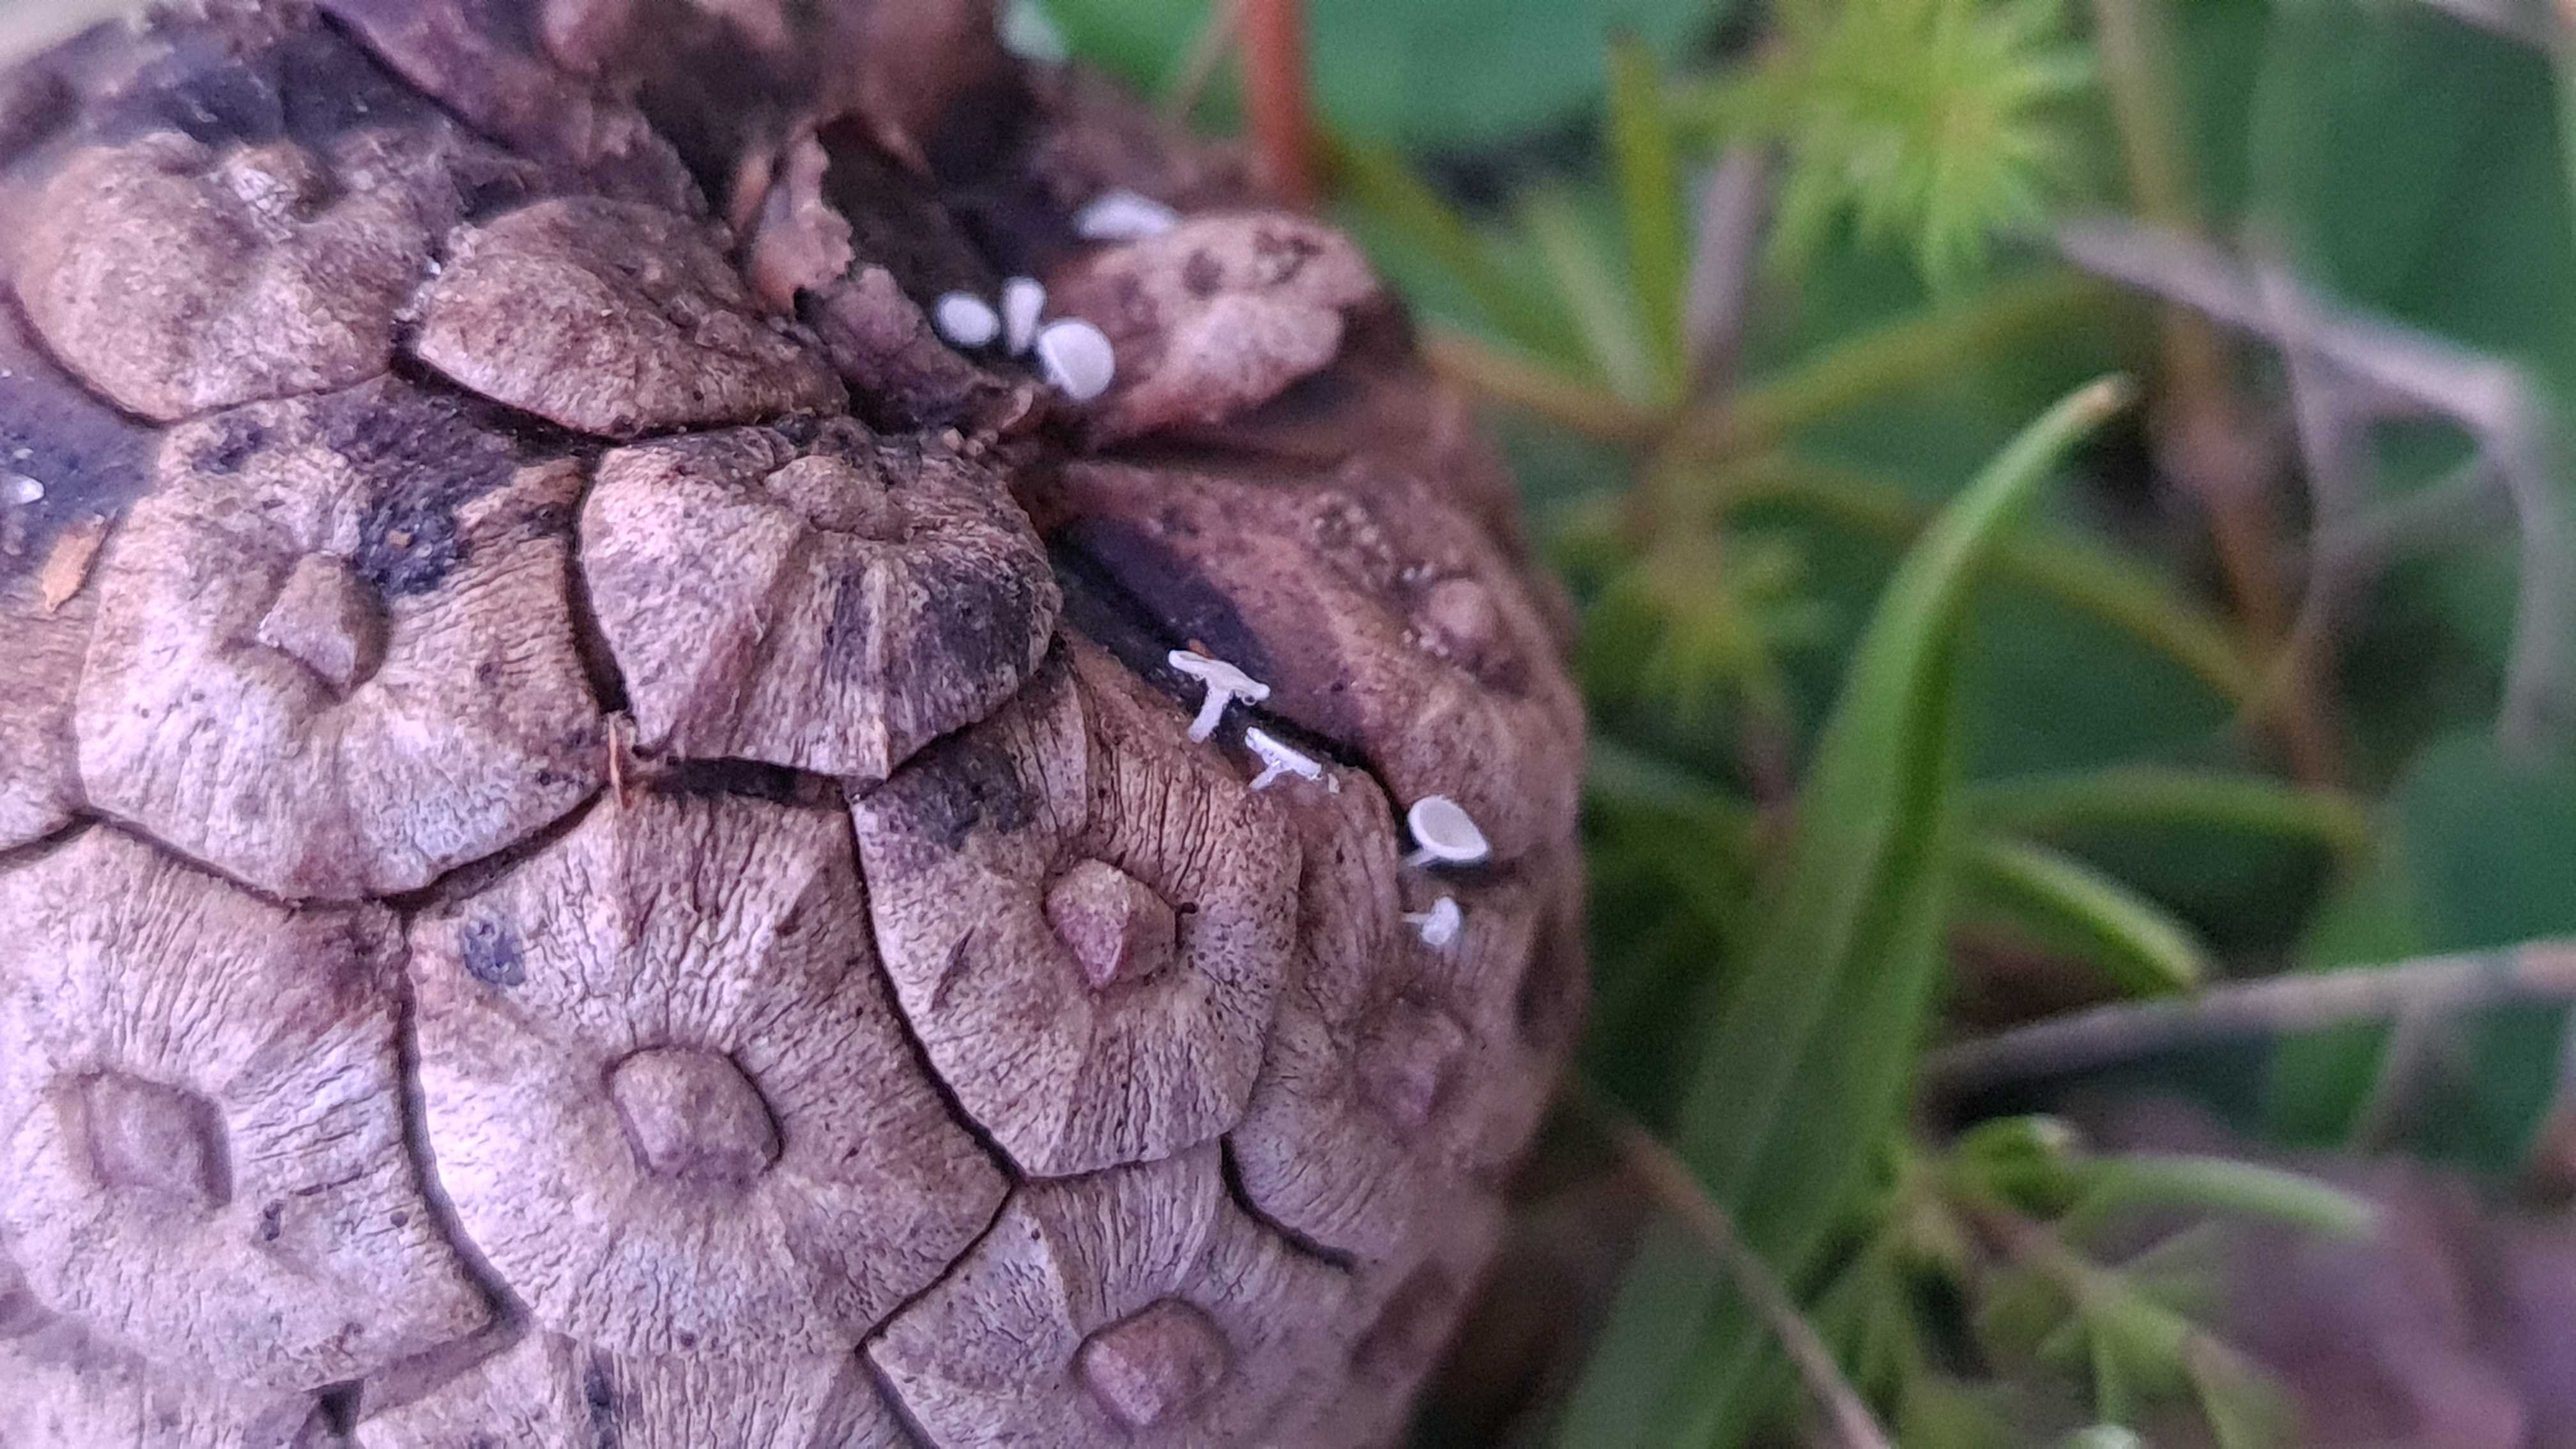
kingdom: Fungi
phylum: Ascomycota
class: Leotiomycetes
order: Helotiales
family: Lachnaceae
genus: Lachnum
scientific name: Lachnum
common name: frynseskive
